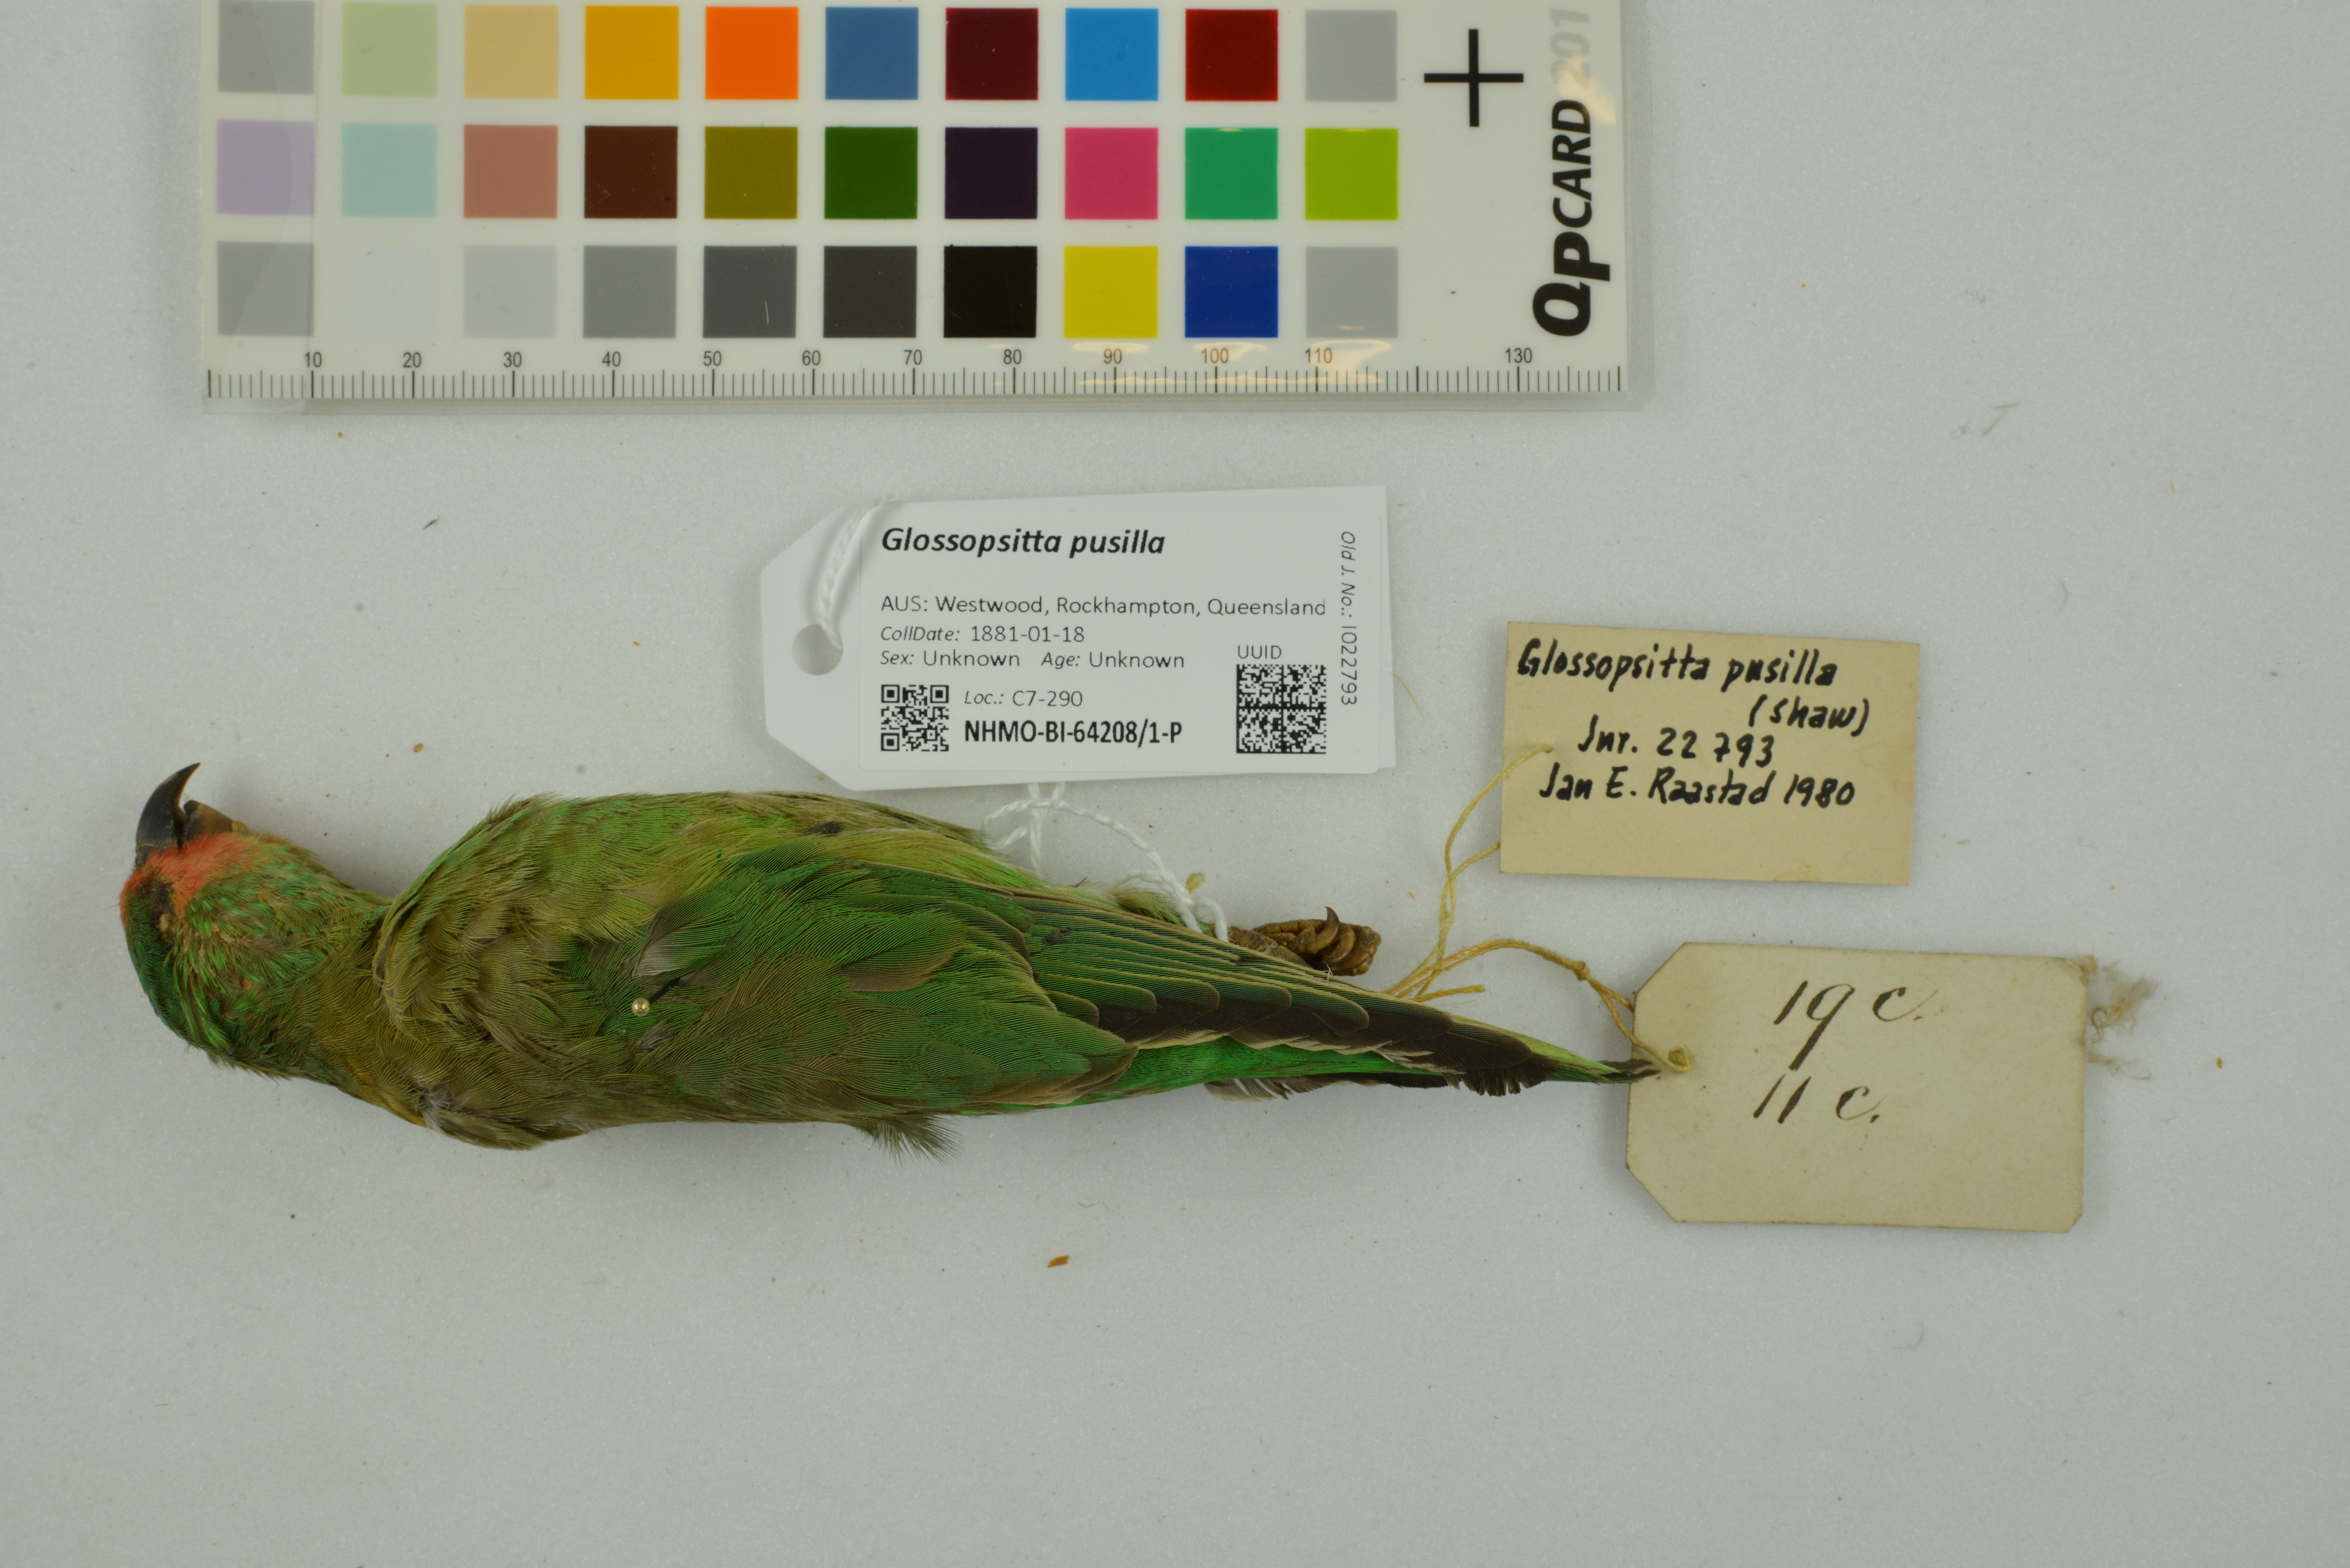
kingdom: Animalia
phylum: Chordata
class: Aves
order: Psittaciformes
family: Psittaculidae
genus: Parvipsitta
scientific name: Parvipsitta pusilla
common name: Little lorikeet
